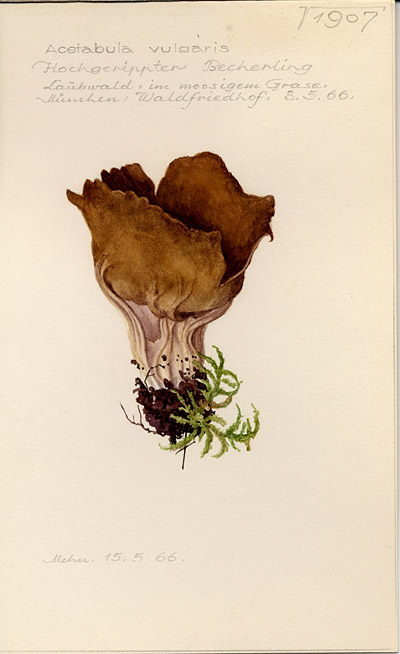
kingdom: Fungi
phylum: Ascomycota
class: Pezizomycetes
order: Pezizales
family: Helvellaceae
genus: Helvella
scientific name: Helvella acetabulum
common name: Vinegar cup
